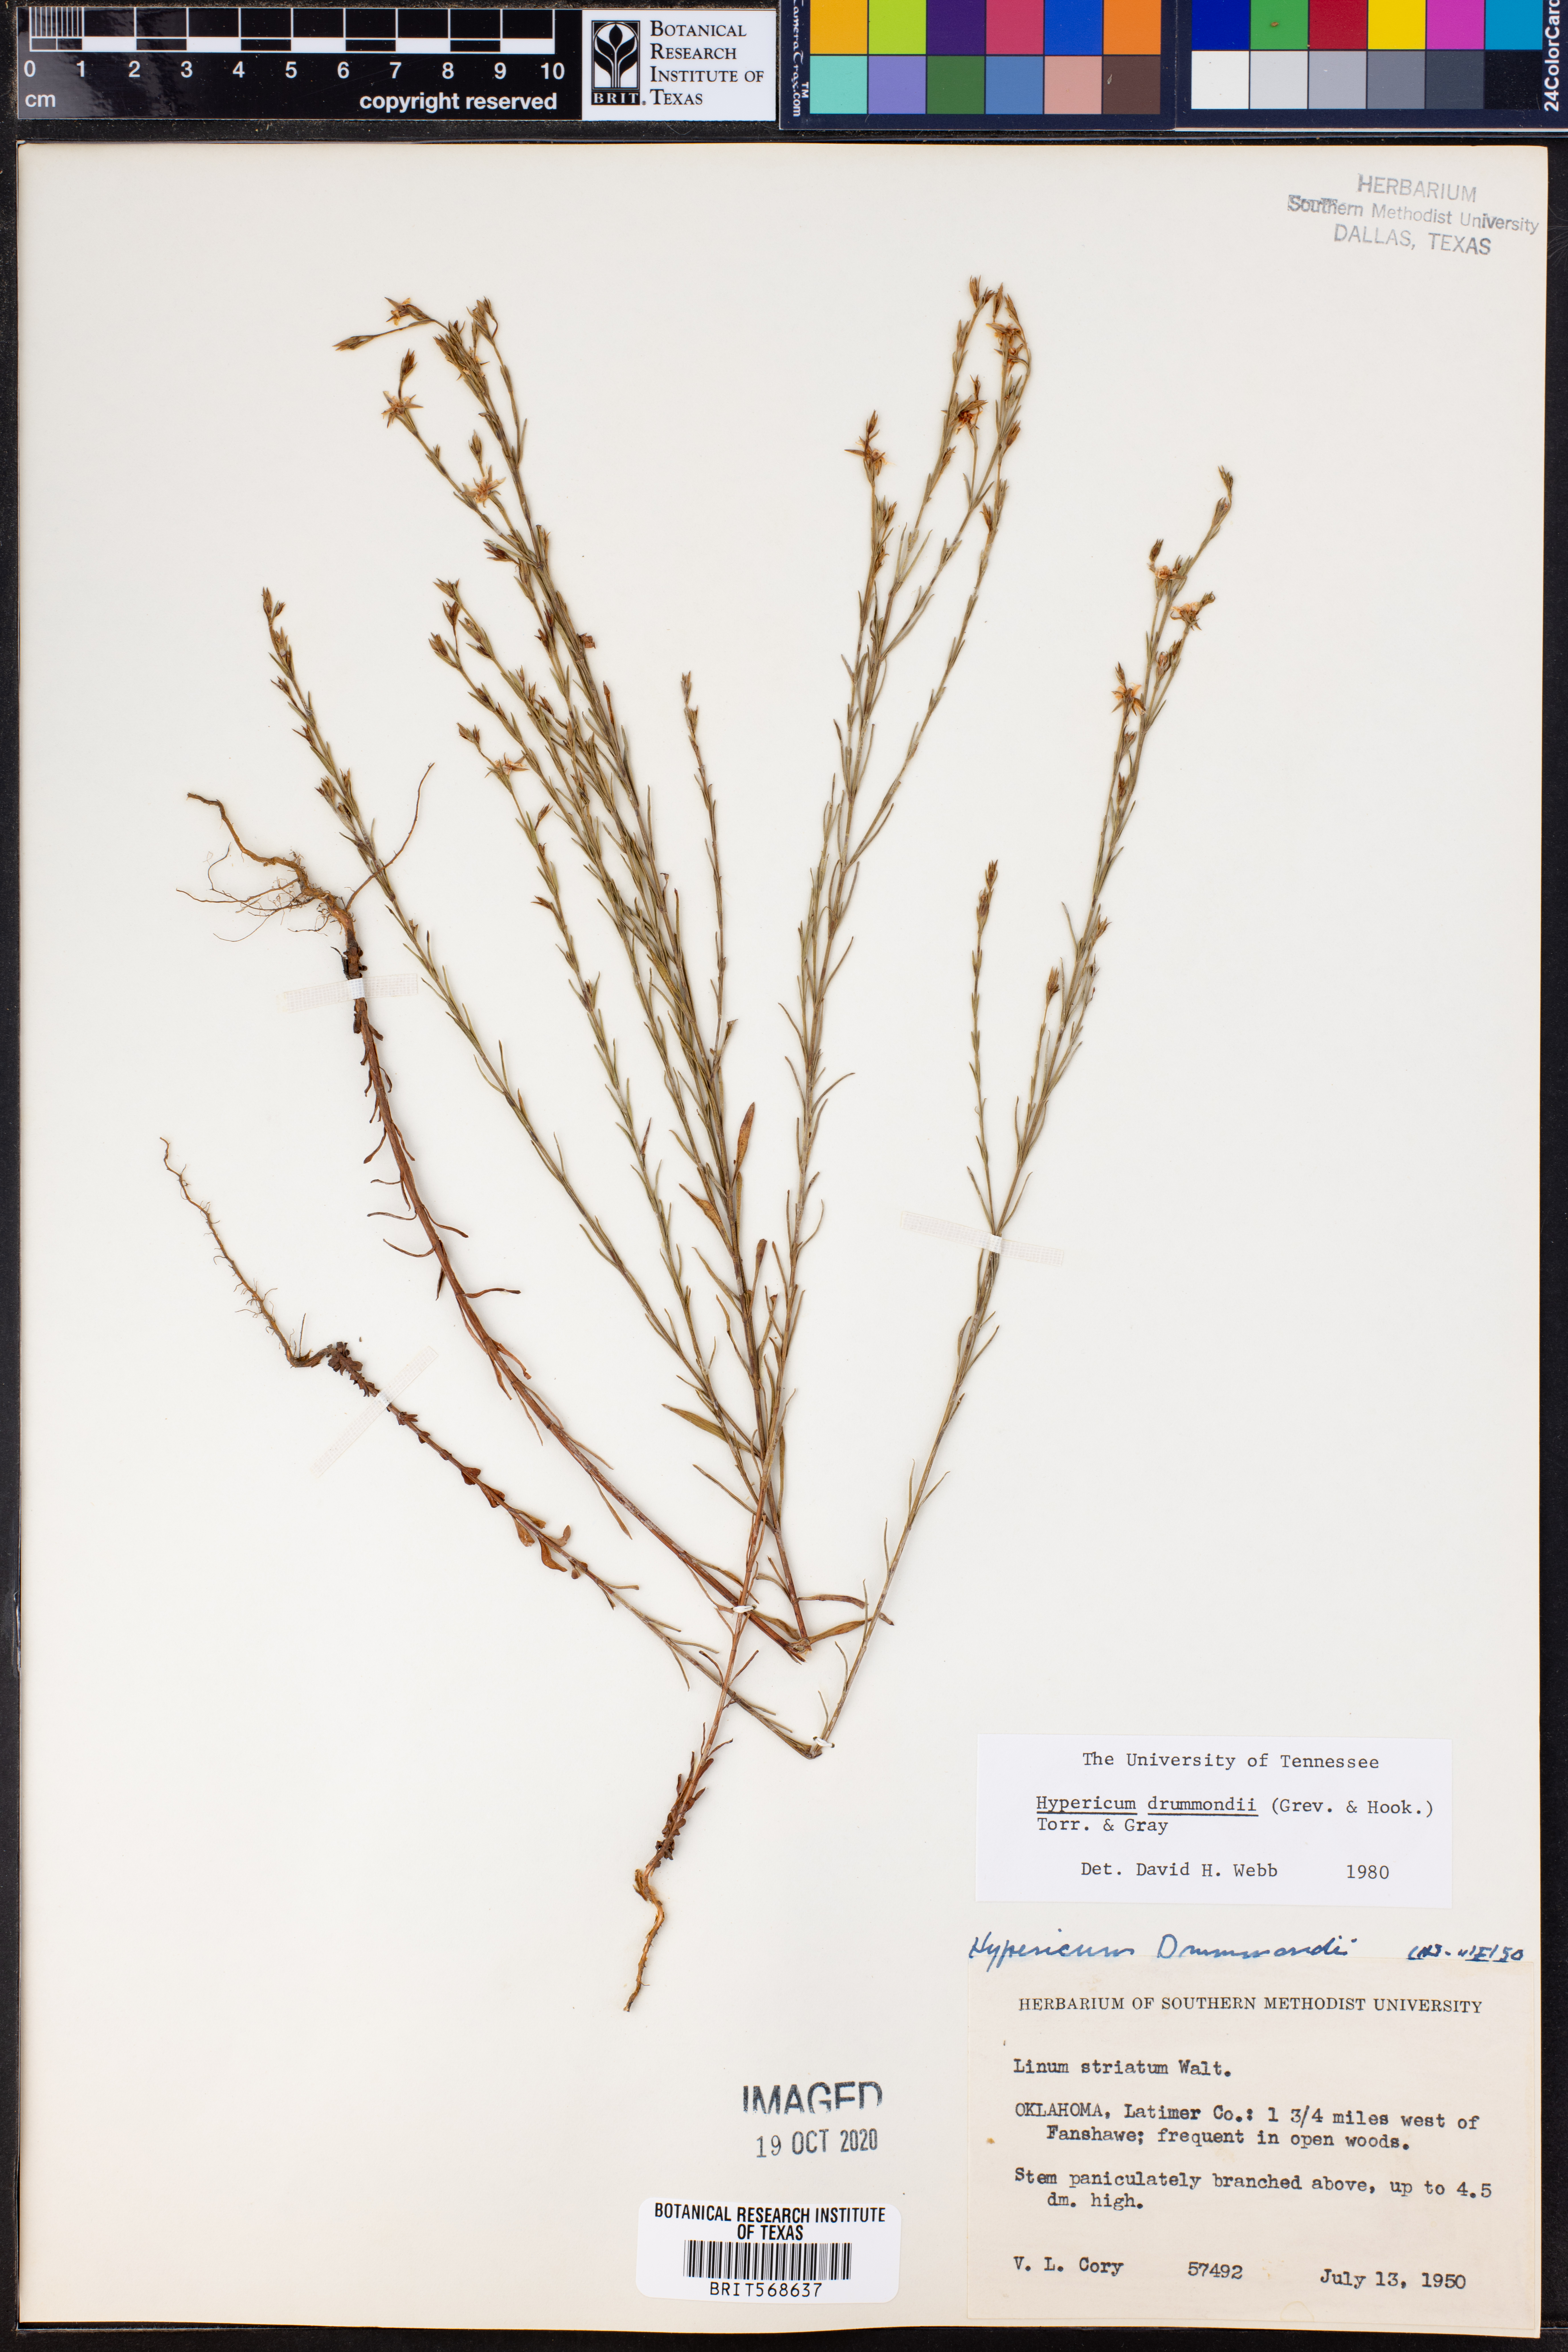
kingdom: Plantae
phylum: Tracheophyta
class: Magnoliopsida
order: Malpighiales
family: Hypericaceae
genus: Hypericum
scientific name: Hypericum drummondii
